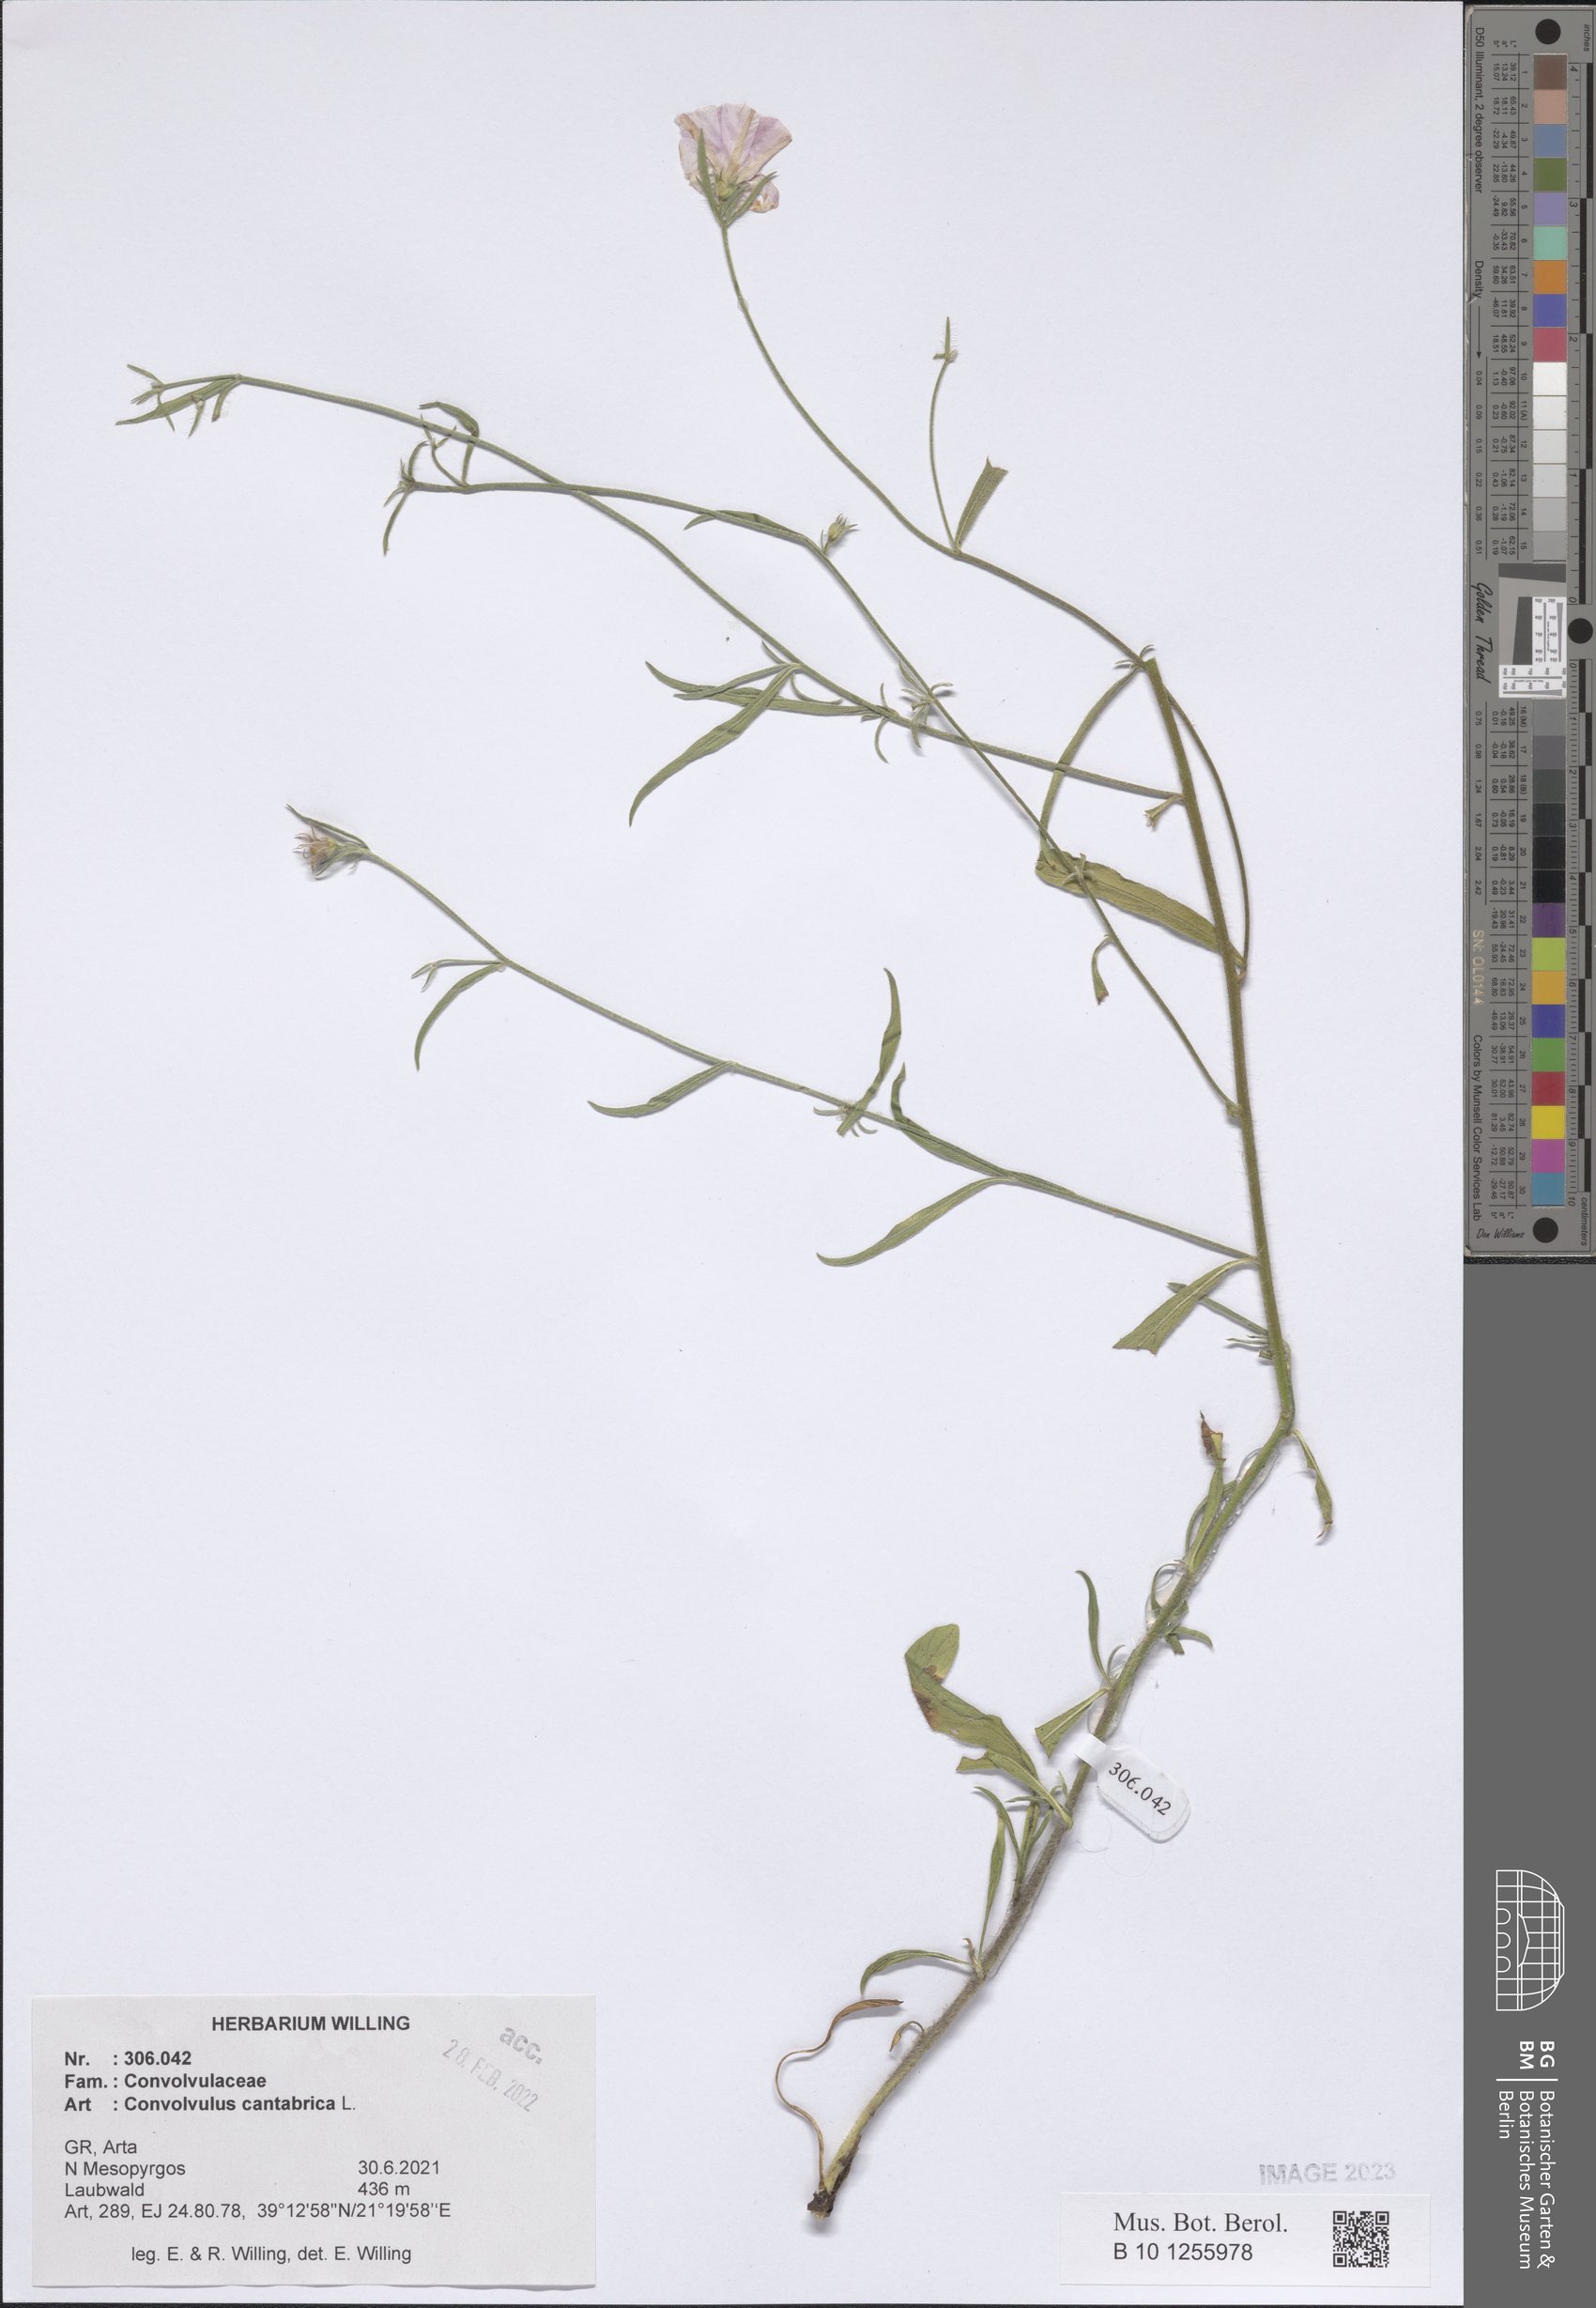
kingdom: Plantae
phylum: Tracheophyta
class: Magnoliopsida
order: Solanales
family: Convolvulaceae
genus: Convolvulus
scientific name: Convolvulus cantabrica
